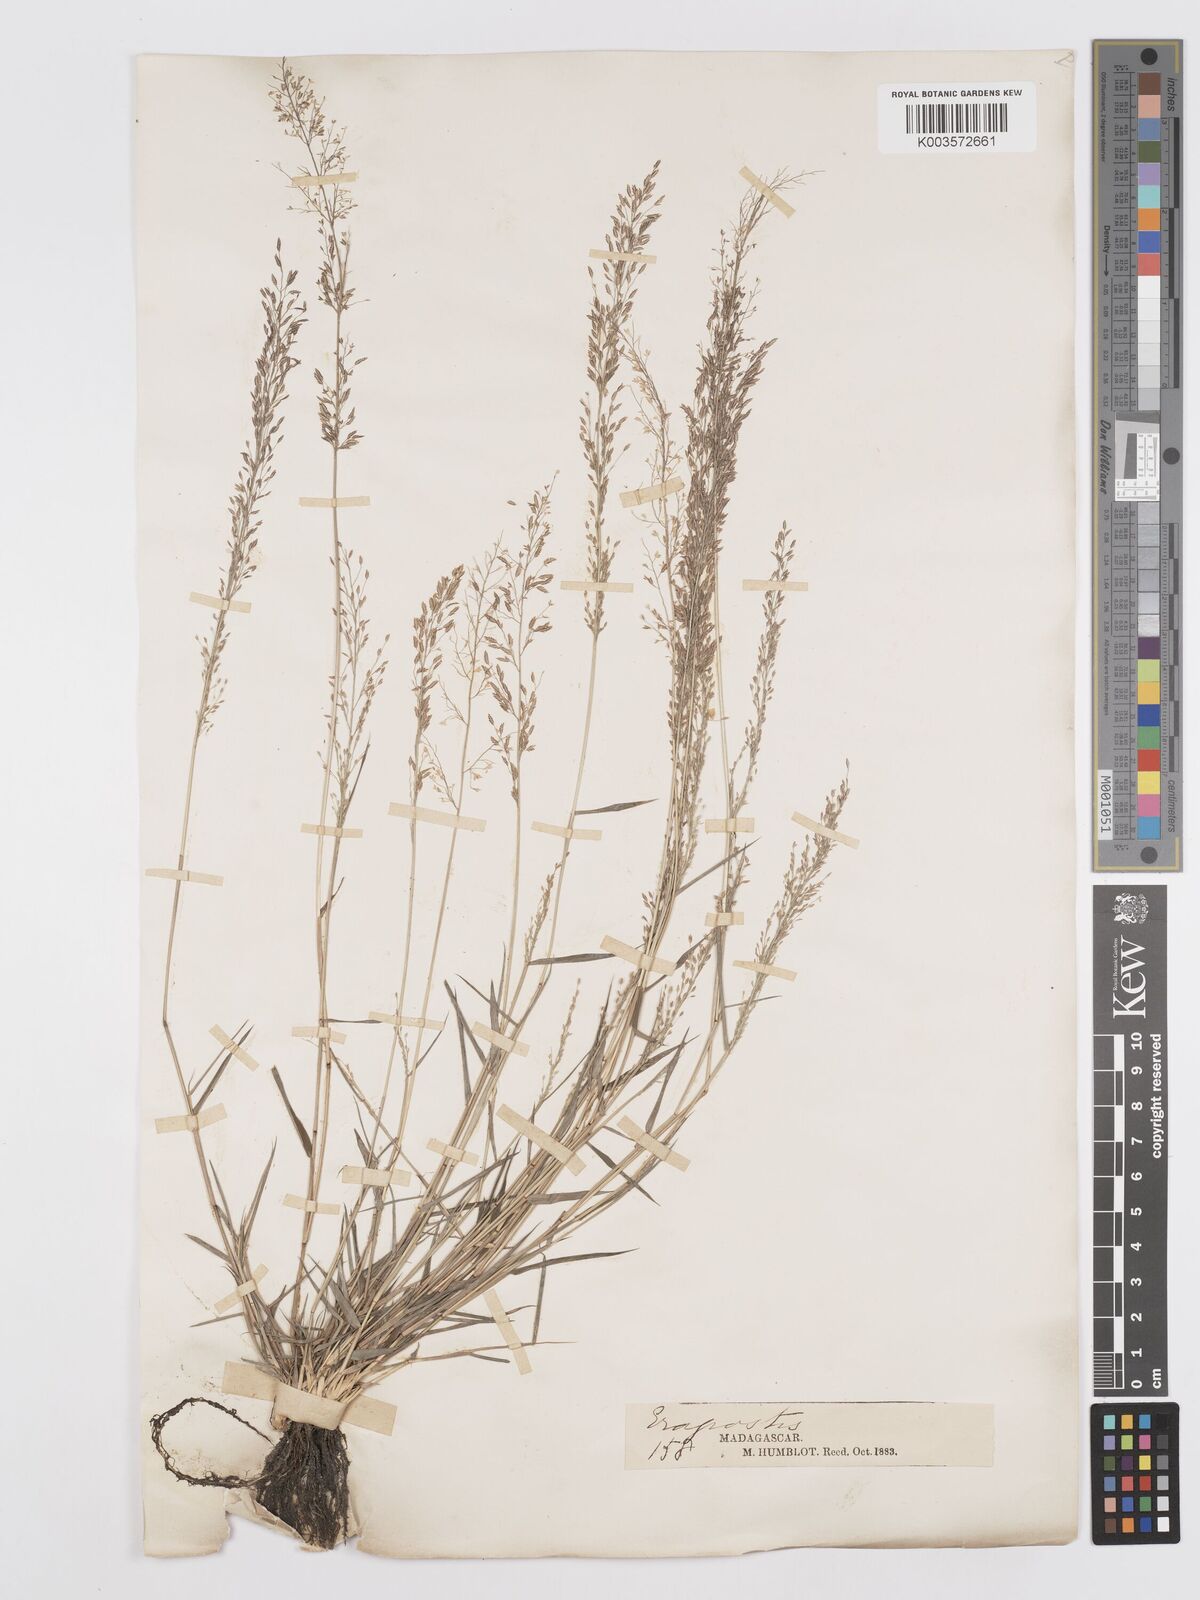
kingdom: Plantae
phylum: Tracheophyta
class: Liliopsida
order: Poales
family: Poaceae
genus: Eragrostis
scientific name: Eragrostis tenella
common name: Japanese lovegrass
